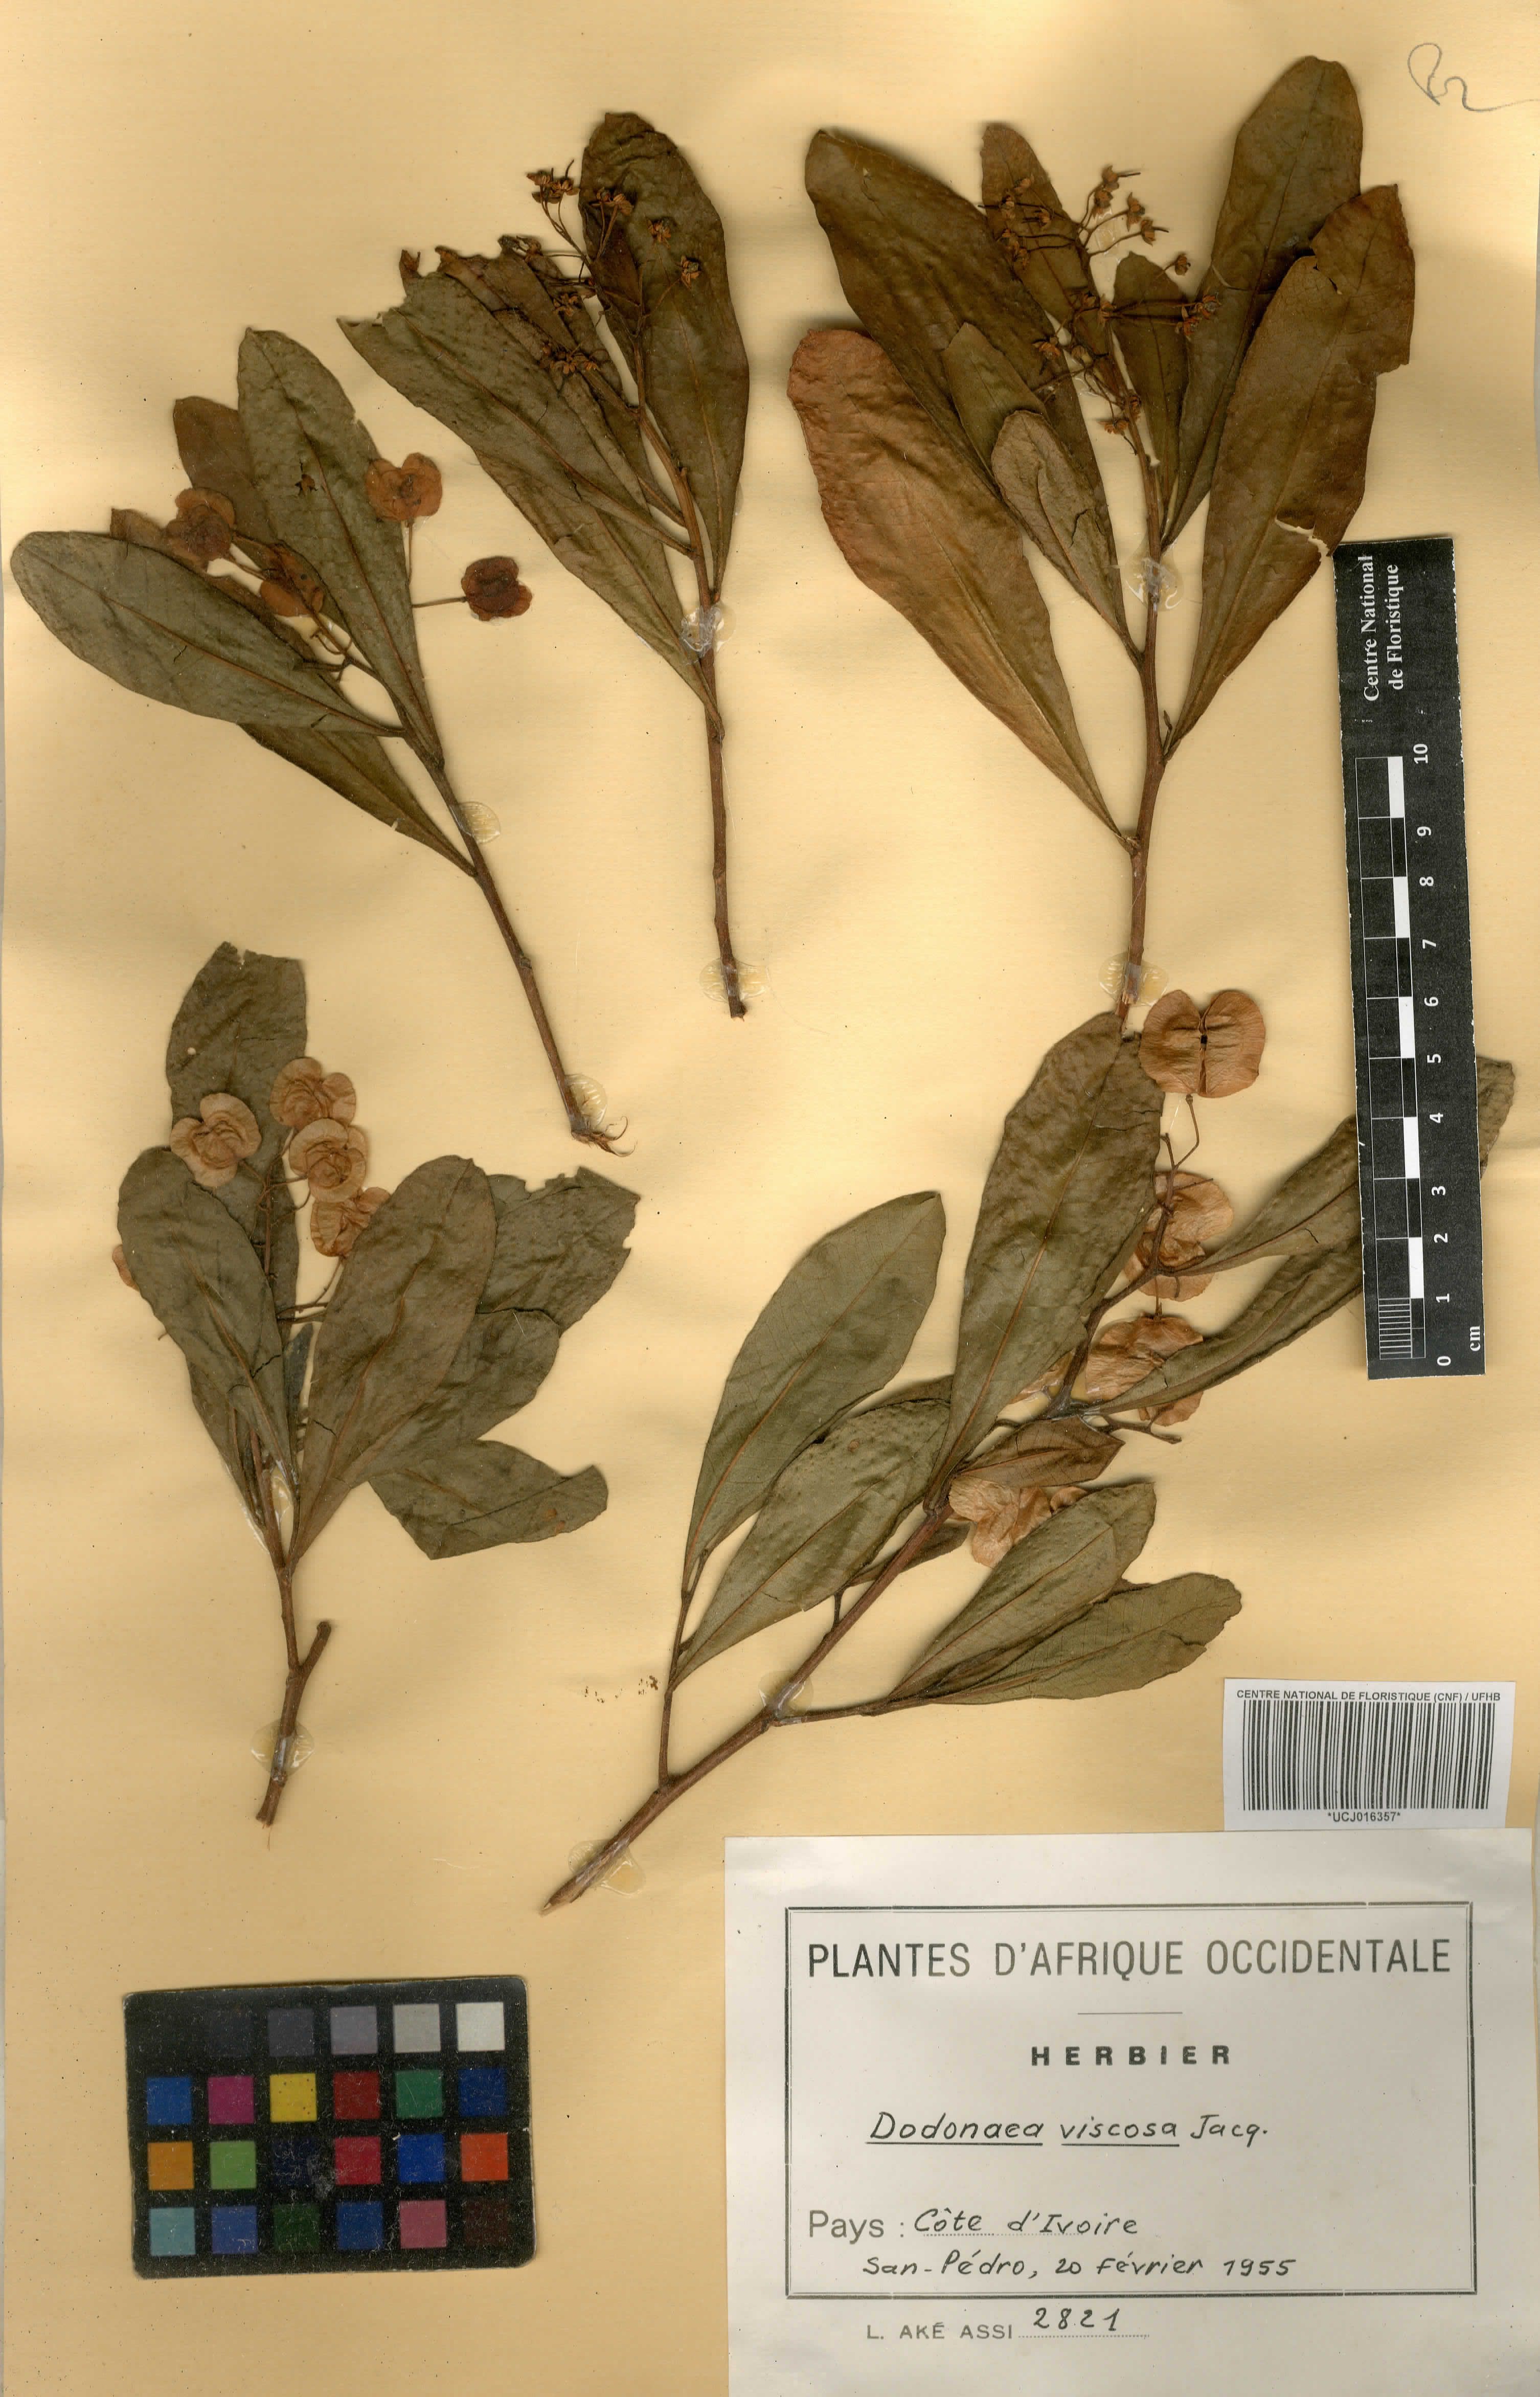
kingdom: Plantae
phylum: Tracheophyta
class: Magnoliopsida
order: Sapindales
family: Sapindaceae
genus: Dodonaea
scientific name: Dodonaea viscosa
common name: Hopbush
